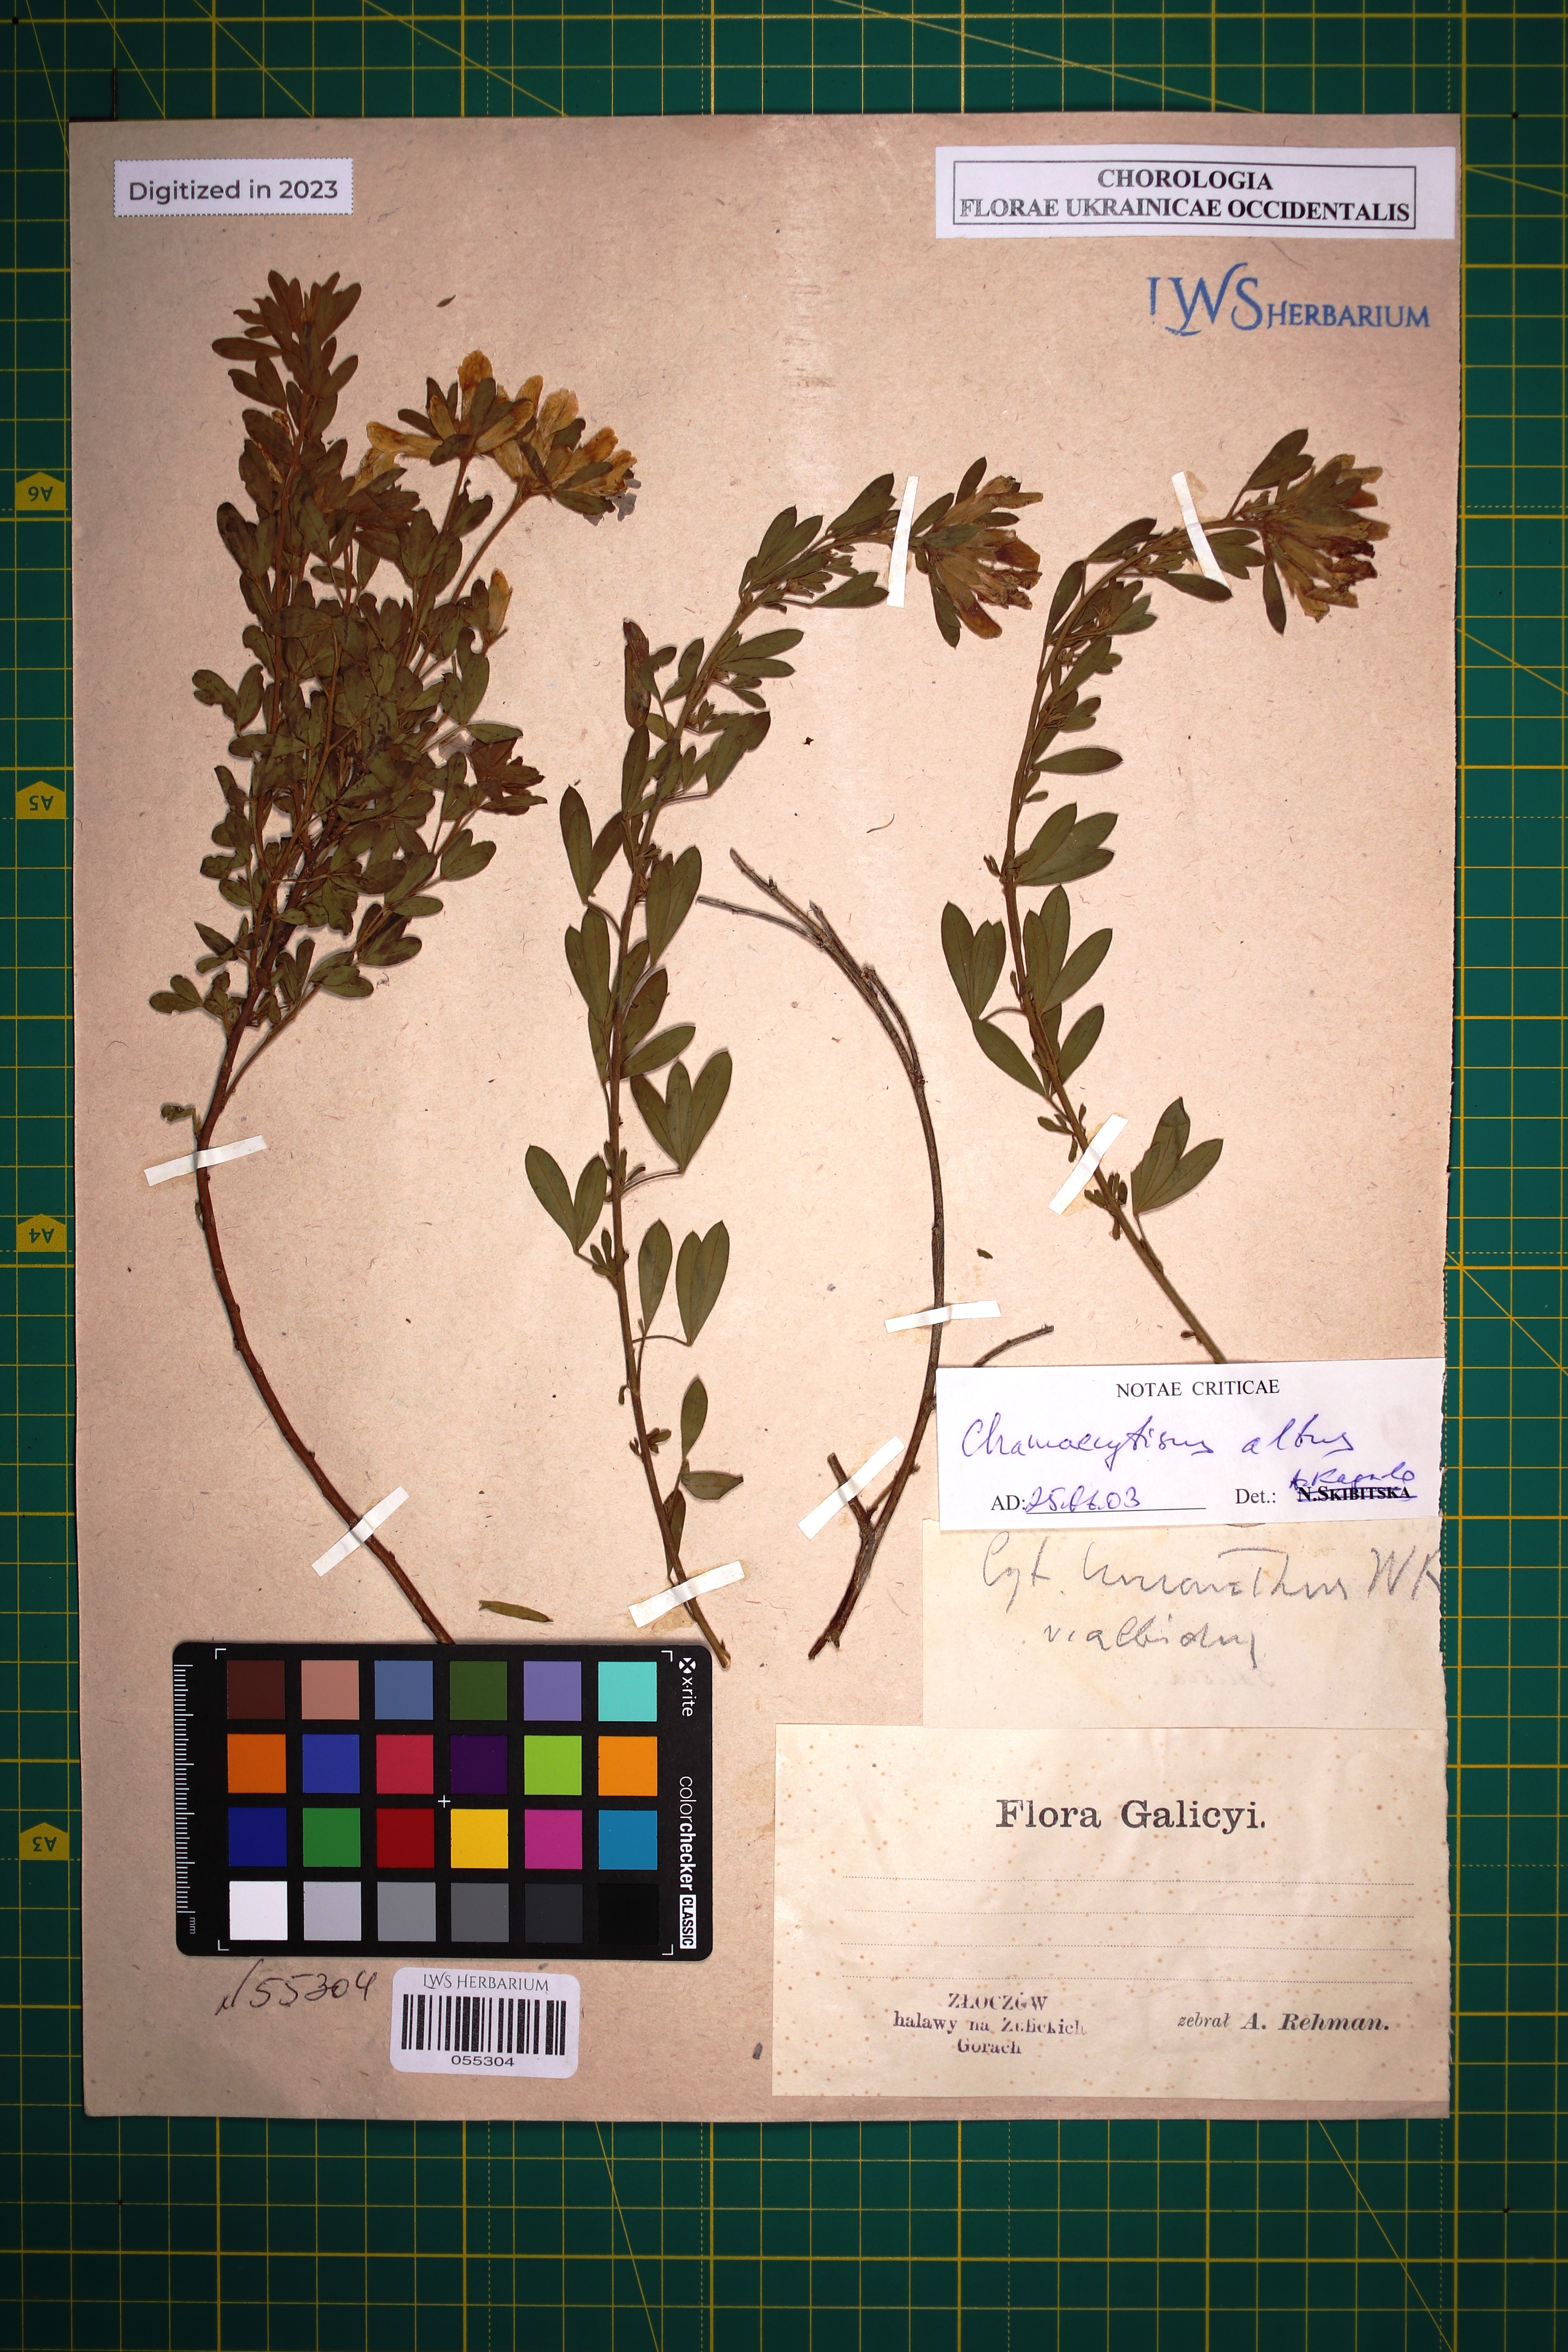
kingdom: Plantae
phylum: Tracheophyta
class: Magnoliopsida
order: Fabales
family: Fabaceae
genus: Chamaecytisus
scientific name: Chamaecytisus albus
